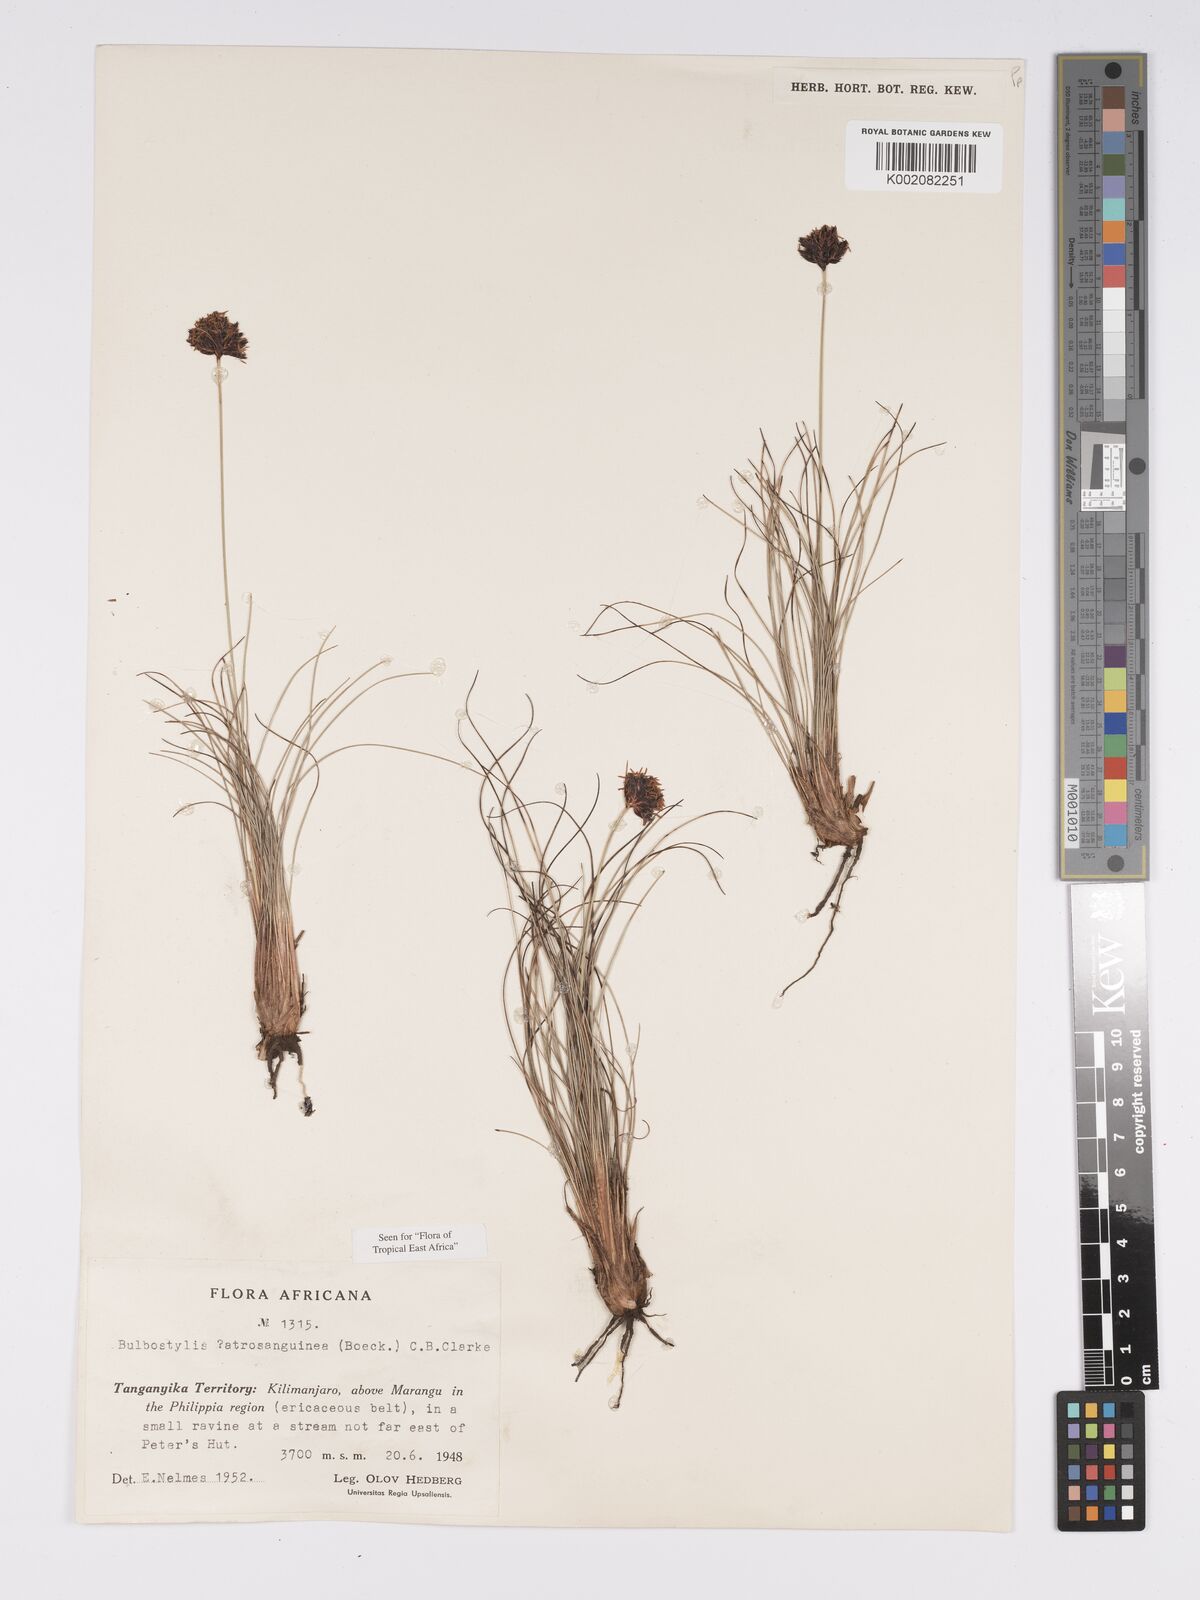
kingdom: Plantae
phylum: Tracheophyta
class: Liliopsida
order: Poales
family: Cyperaceae
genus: Bulbostylis
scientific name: Bulbostylis atrosanguinea
